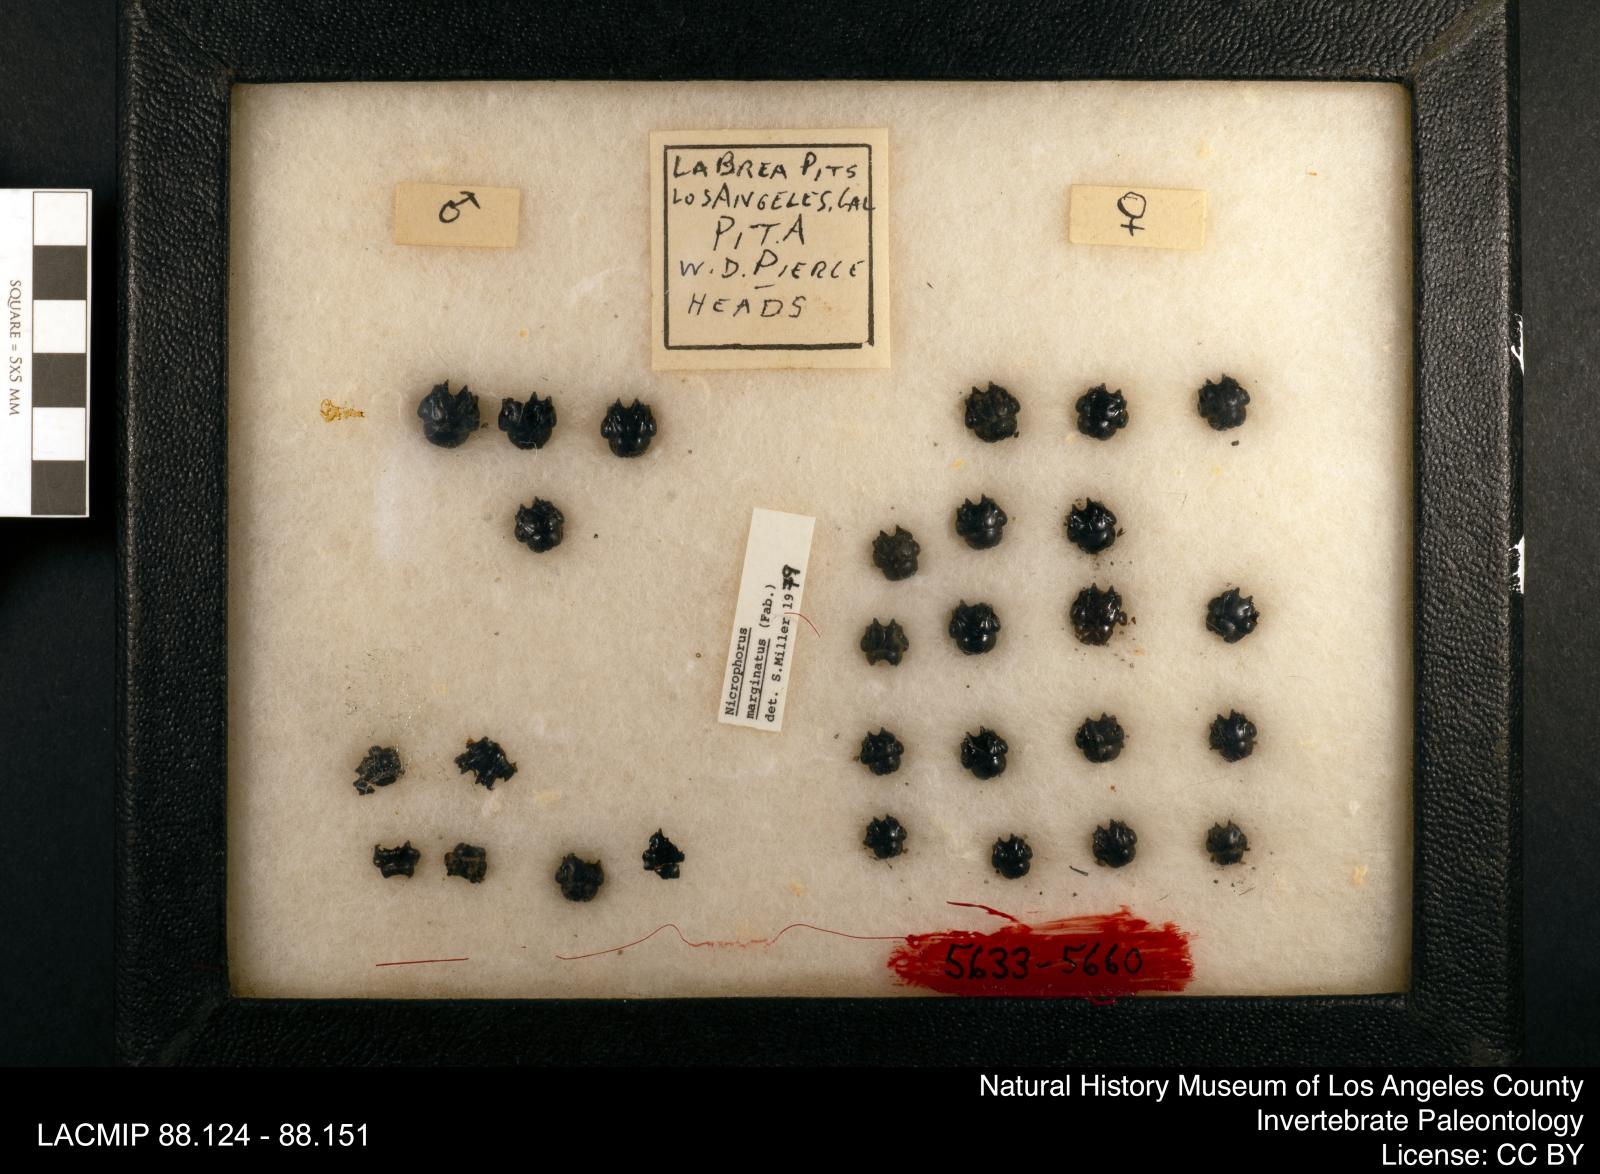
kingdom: Animalia
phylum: Arthropoda
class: Insecta
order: Coleoptera
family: Staphylinidae
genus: Nicrophorus
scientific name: Nicrophorus marginatus
